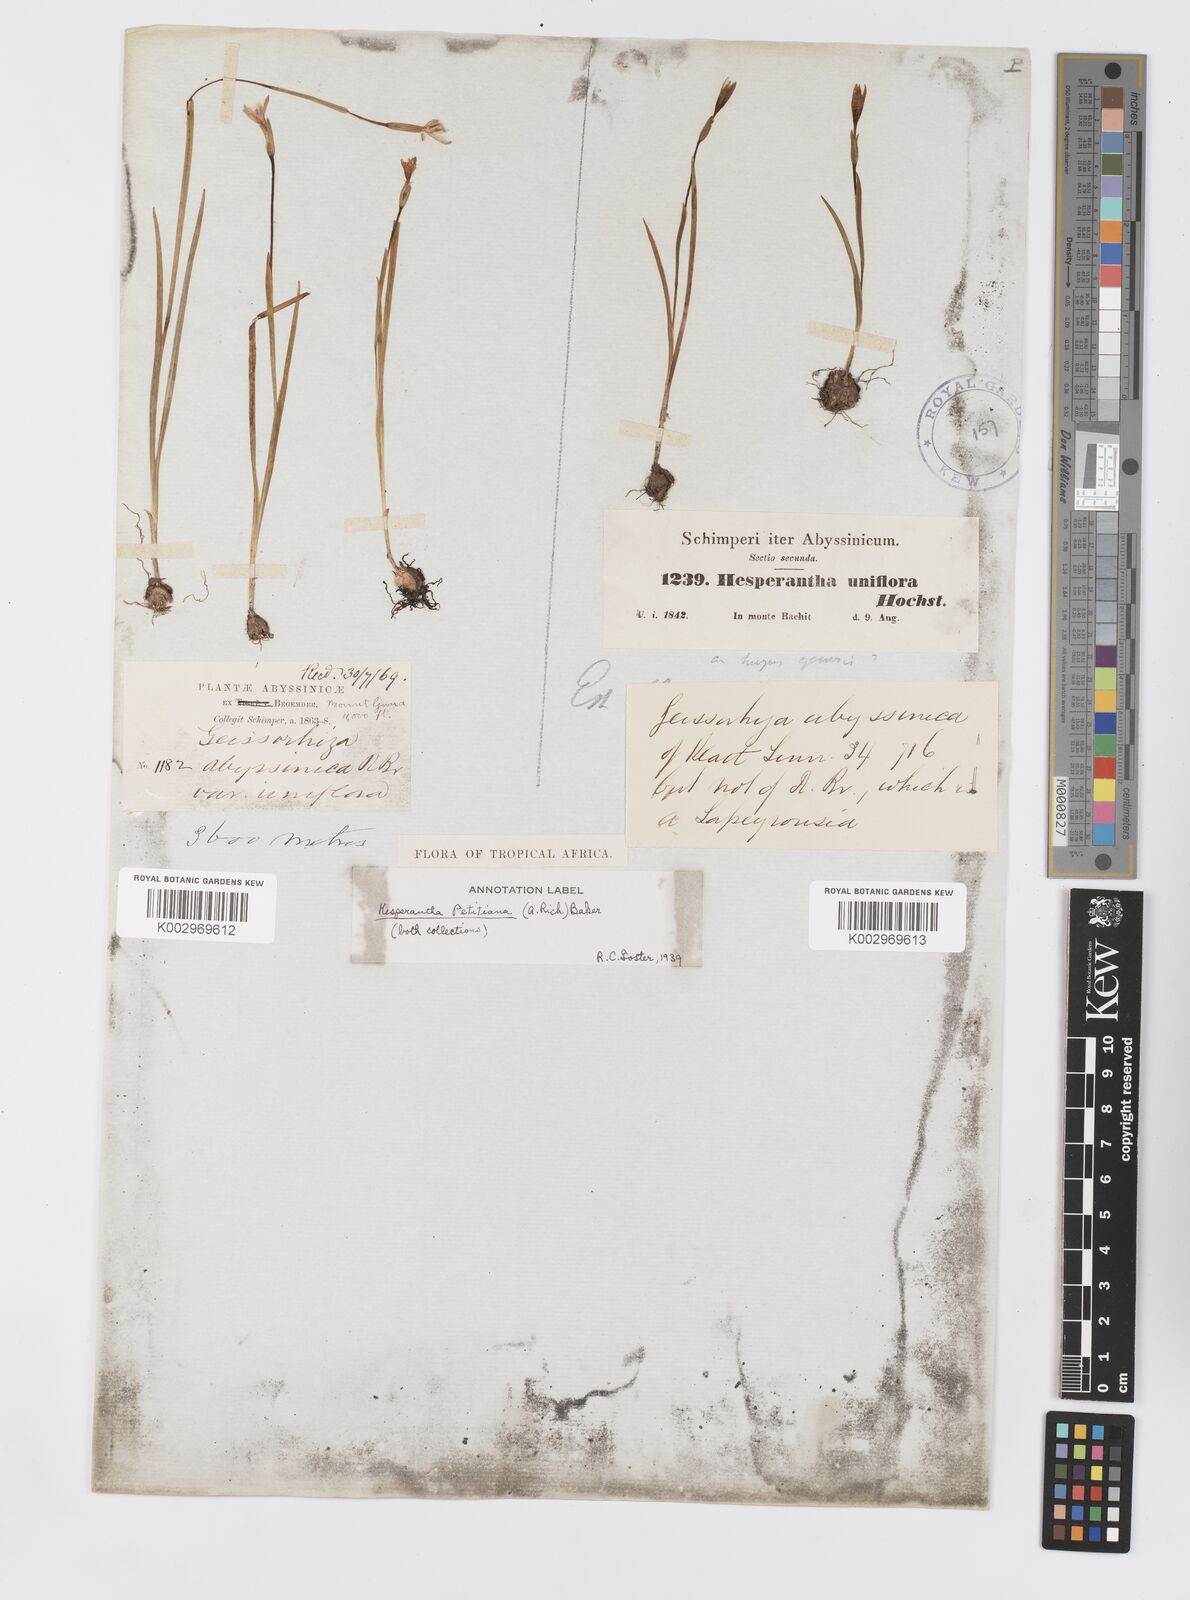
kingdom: Plantae
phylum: Tracheophyta
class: Liliopsida
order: Asparagales
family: Iridaceae
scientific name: Iridaceae
